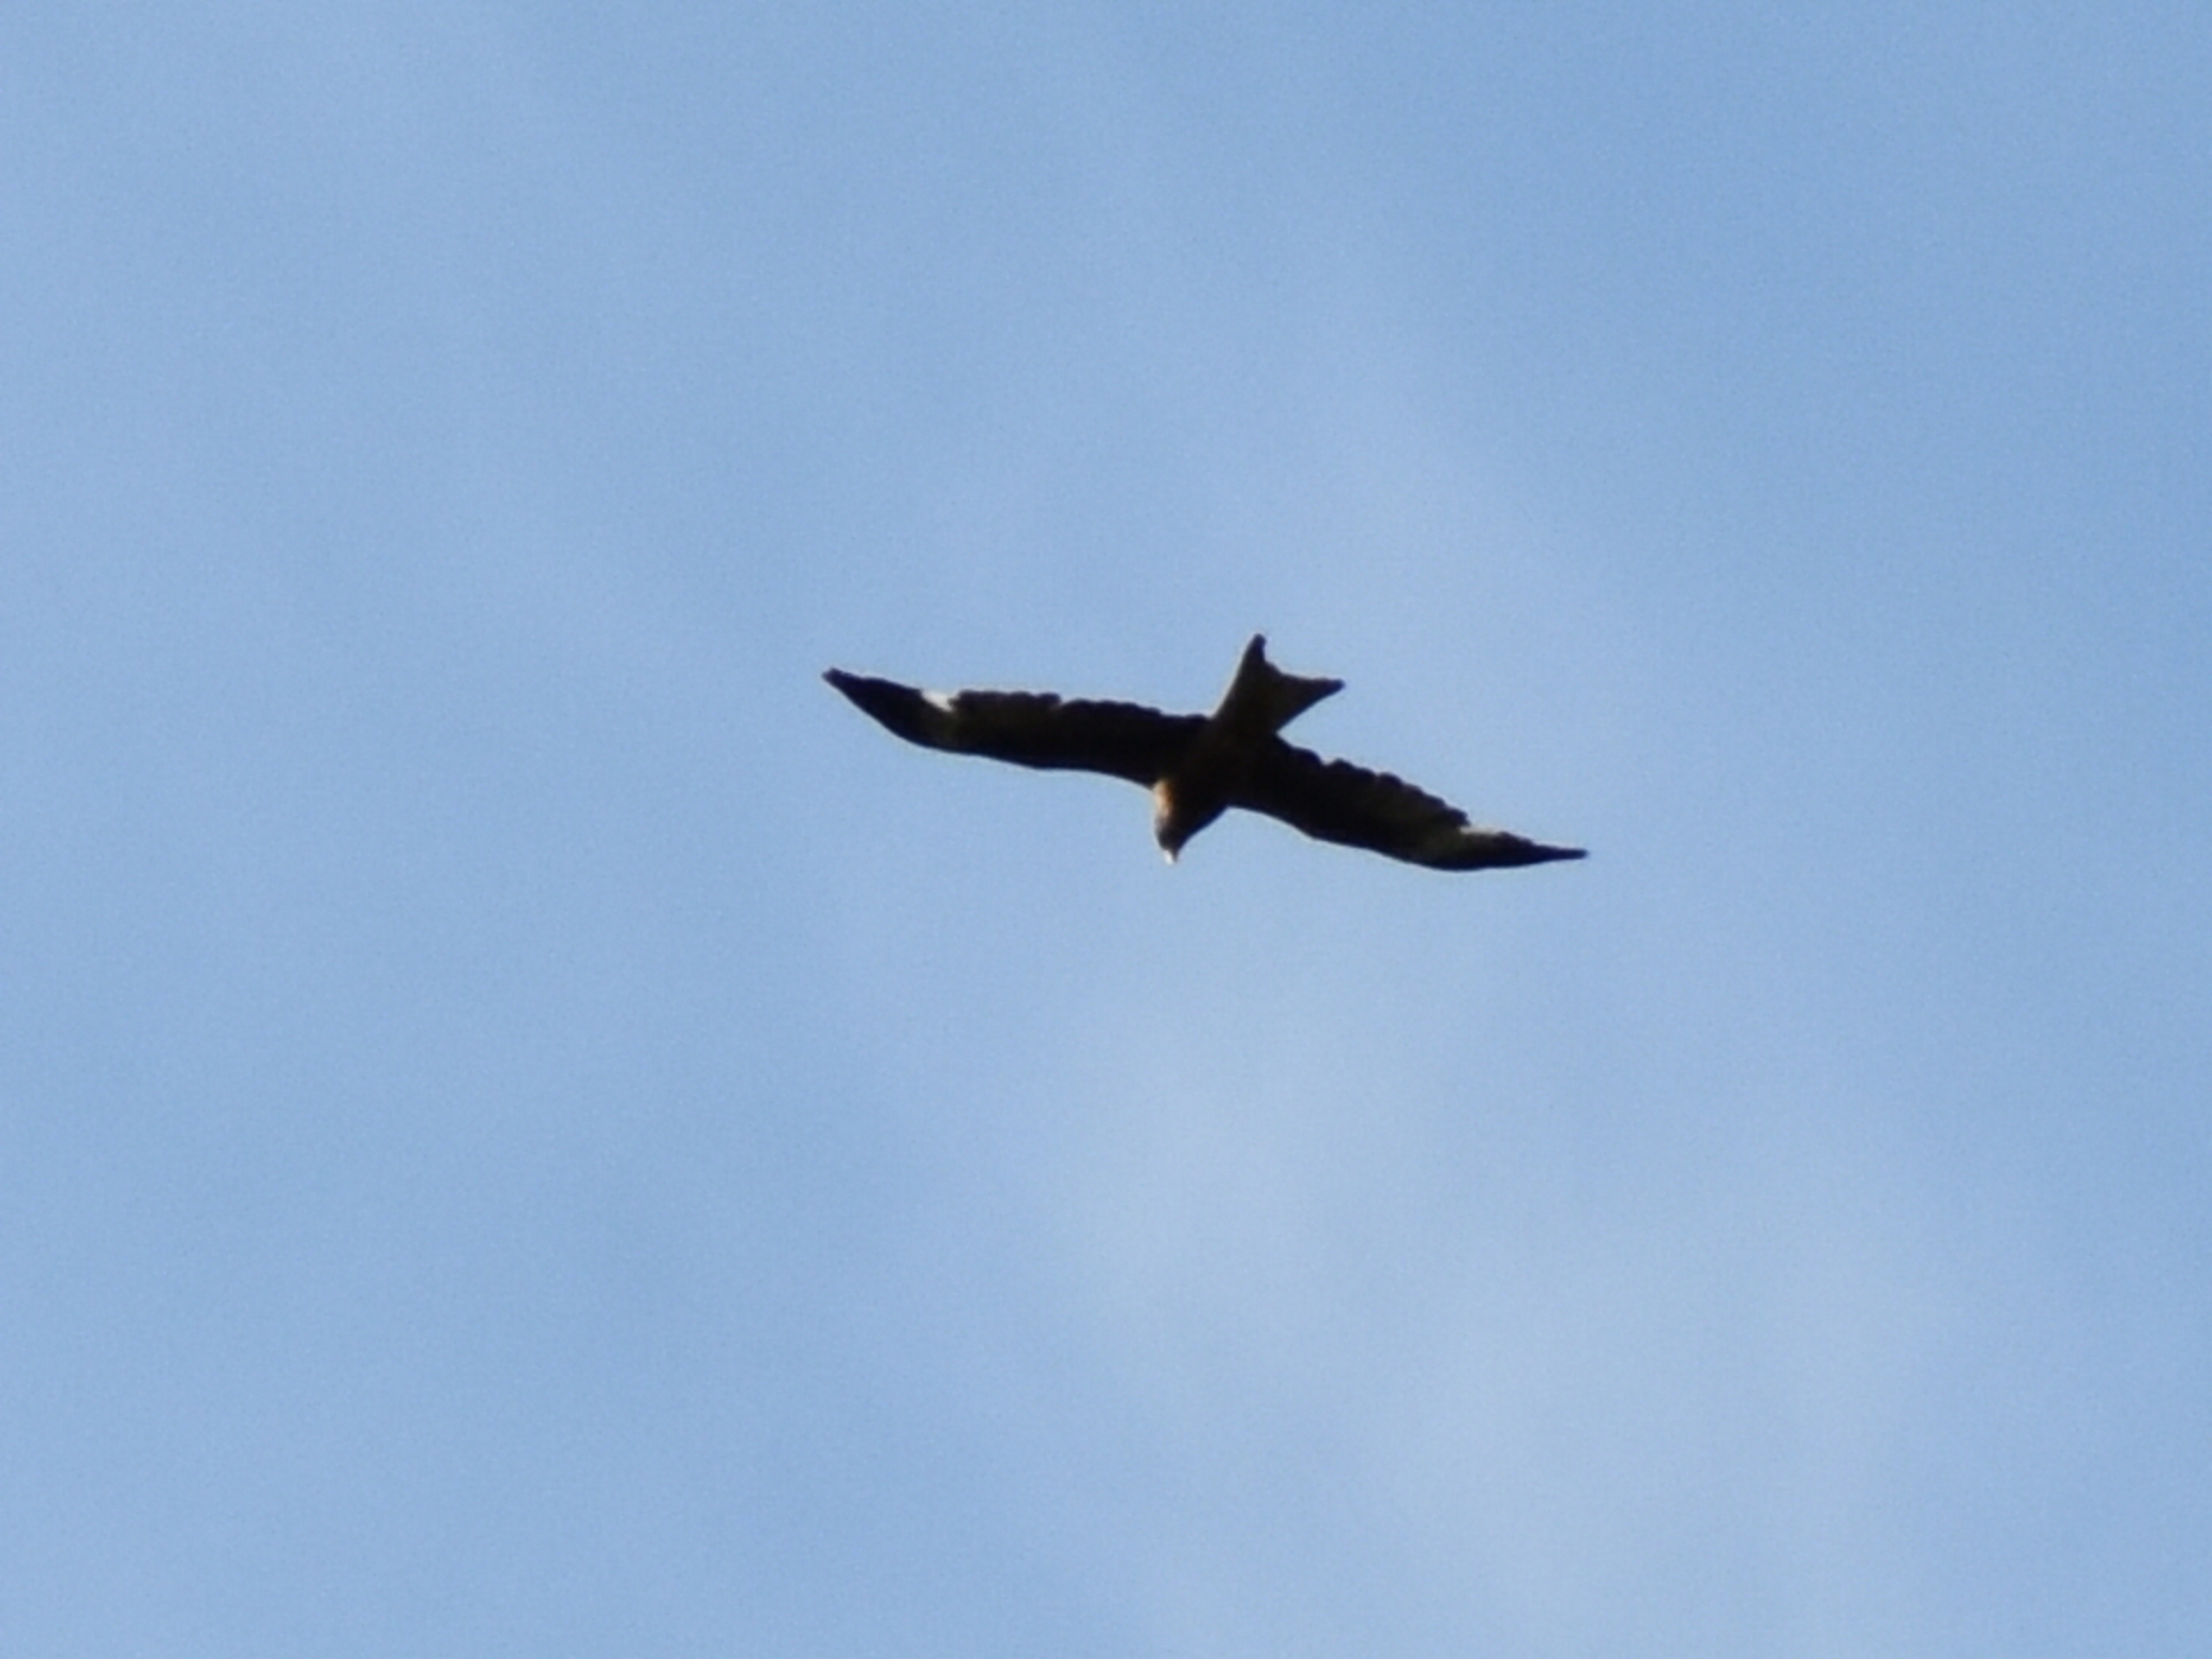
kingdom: Animalia
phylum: Chordata
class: Aves
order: Accipitriformes
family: Accipitridae
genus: Milvus
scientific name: Milvus milvus
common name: Rød glente
